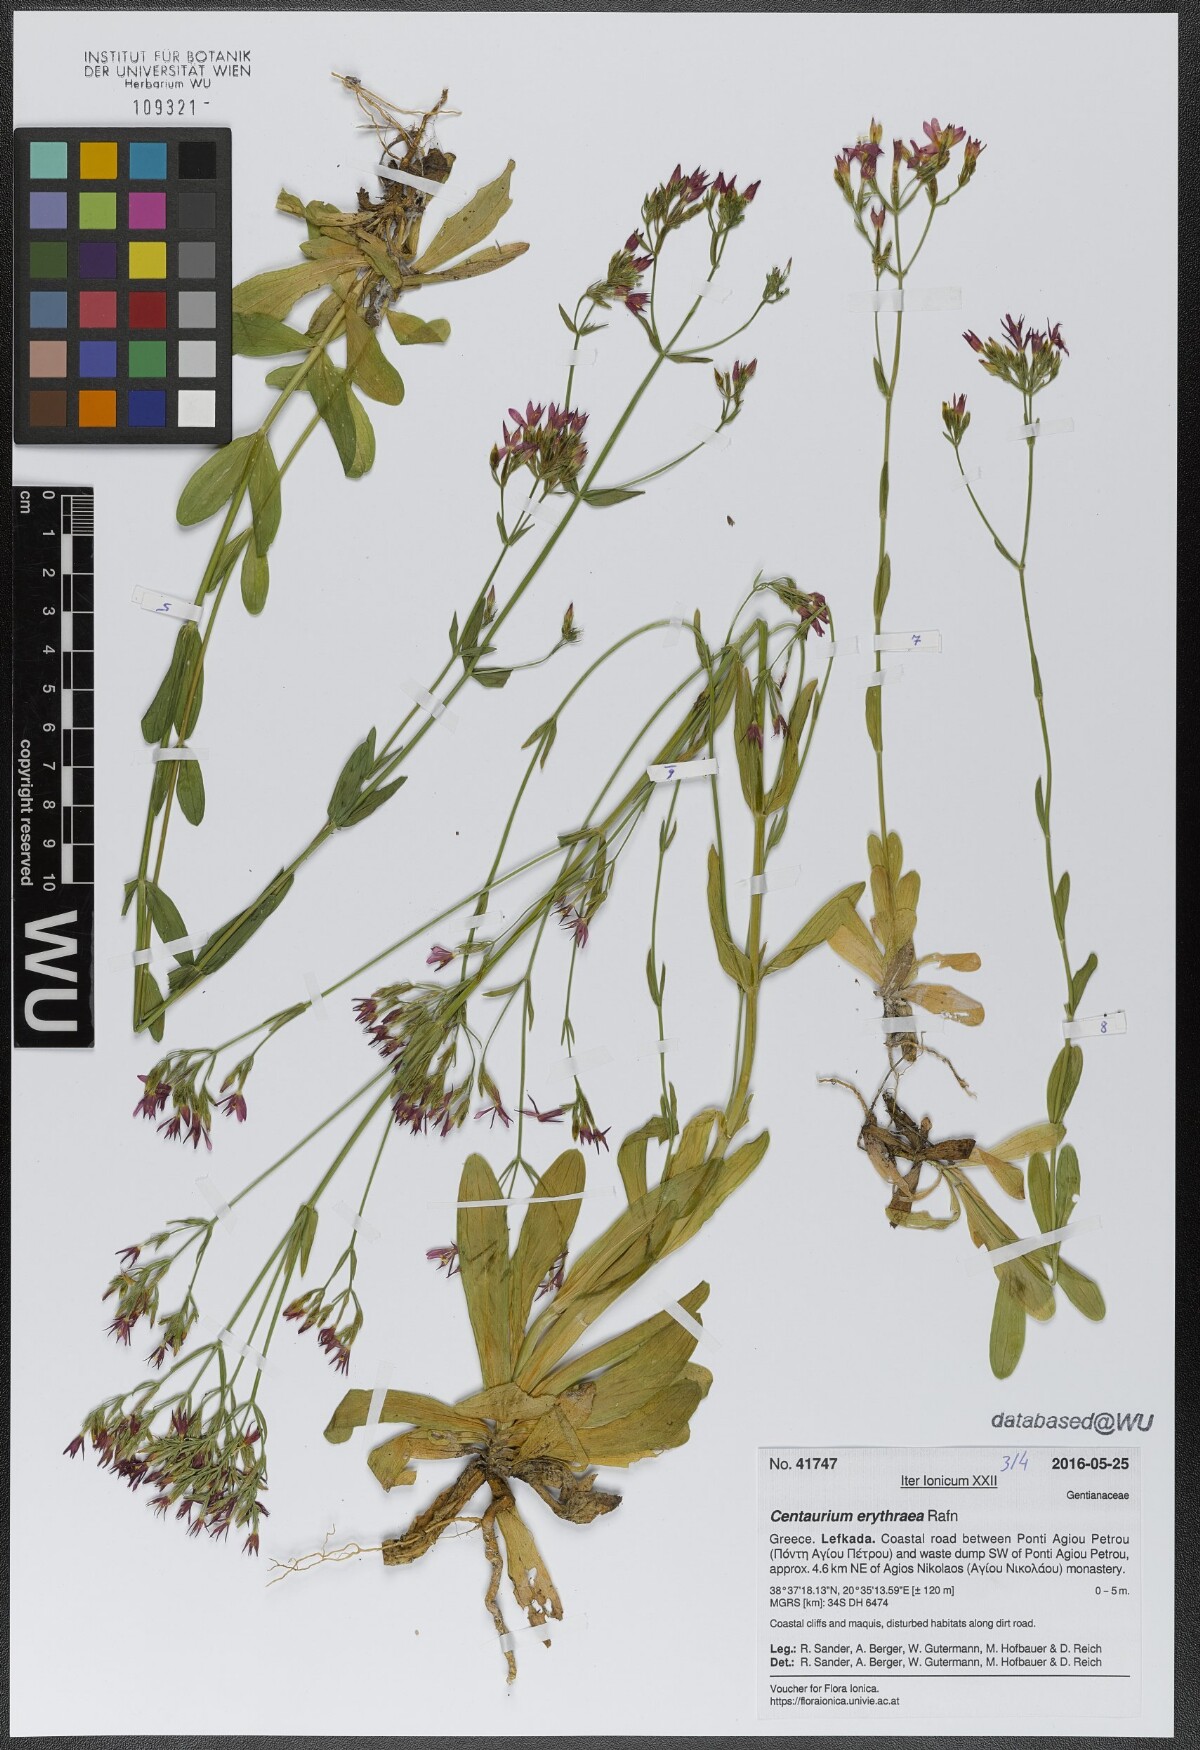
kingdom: Plantae
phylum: Tracheophyta
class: Magnoliopsida
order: Gentianales
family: Gentianaceae
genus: Centaurium
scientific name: Centaurium erythraea
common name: Common centaury
